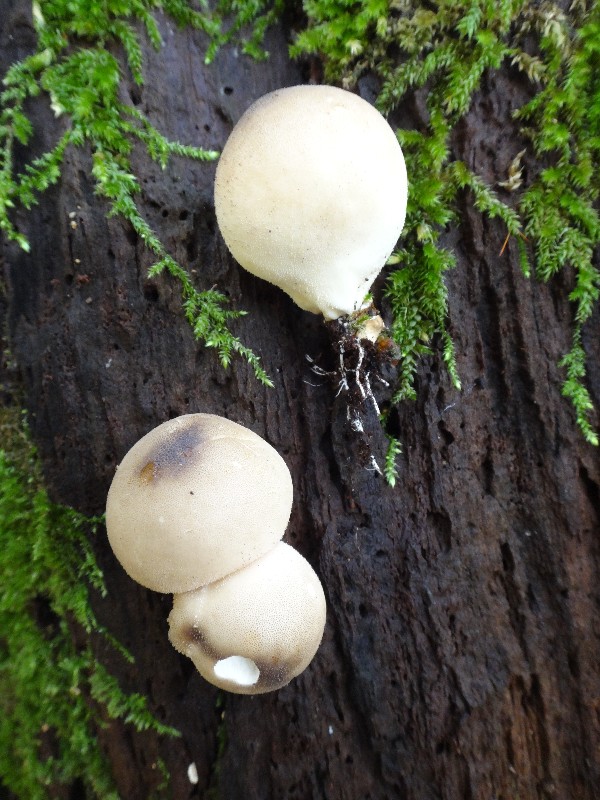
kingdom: Fungi
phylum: Basidiomycota
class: Agaricomycetes
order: Agaricales
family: Lycoperdaceae
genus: Apioperdon
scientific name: Apioperdon pyriforme
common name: pære-støvbold
